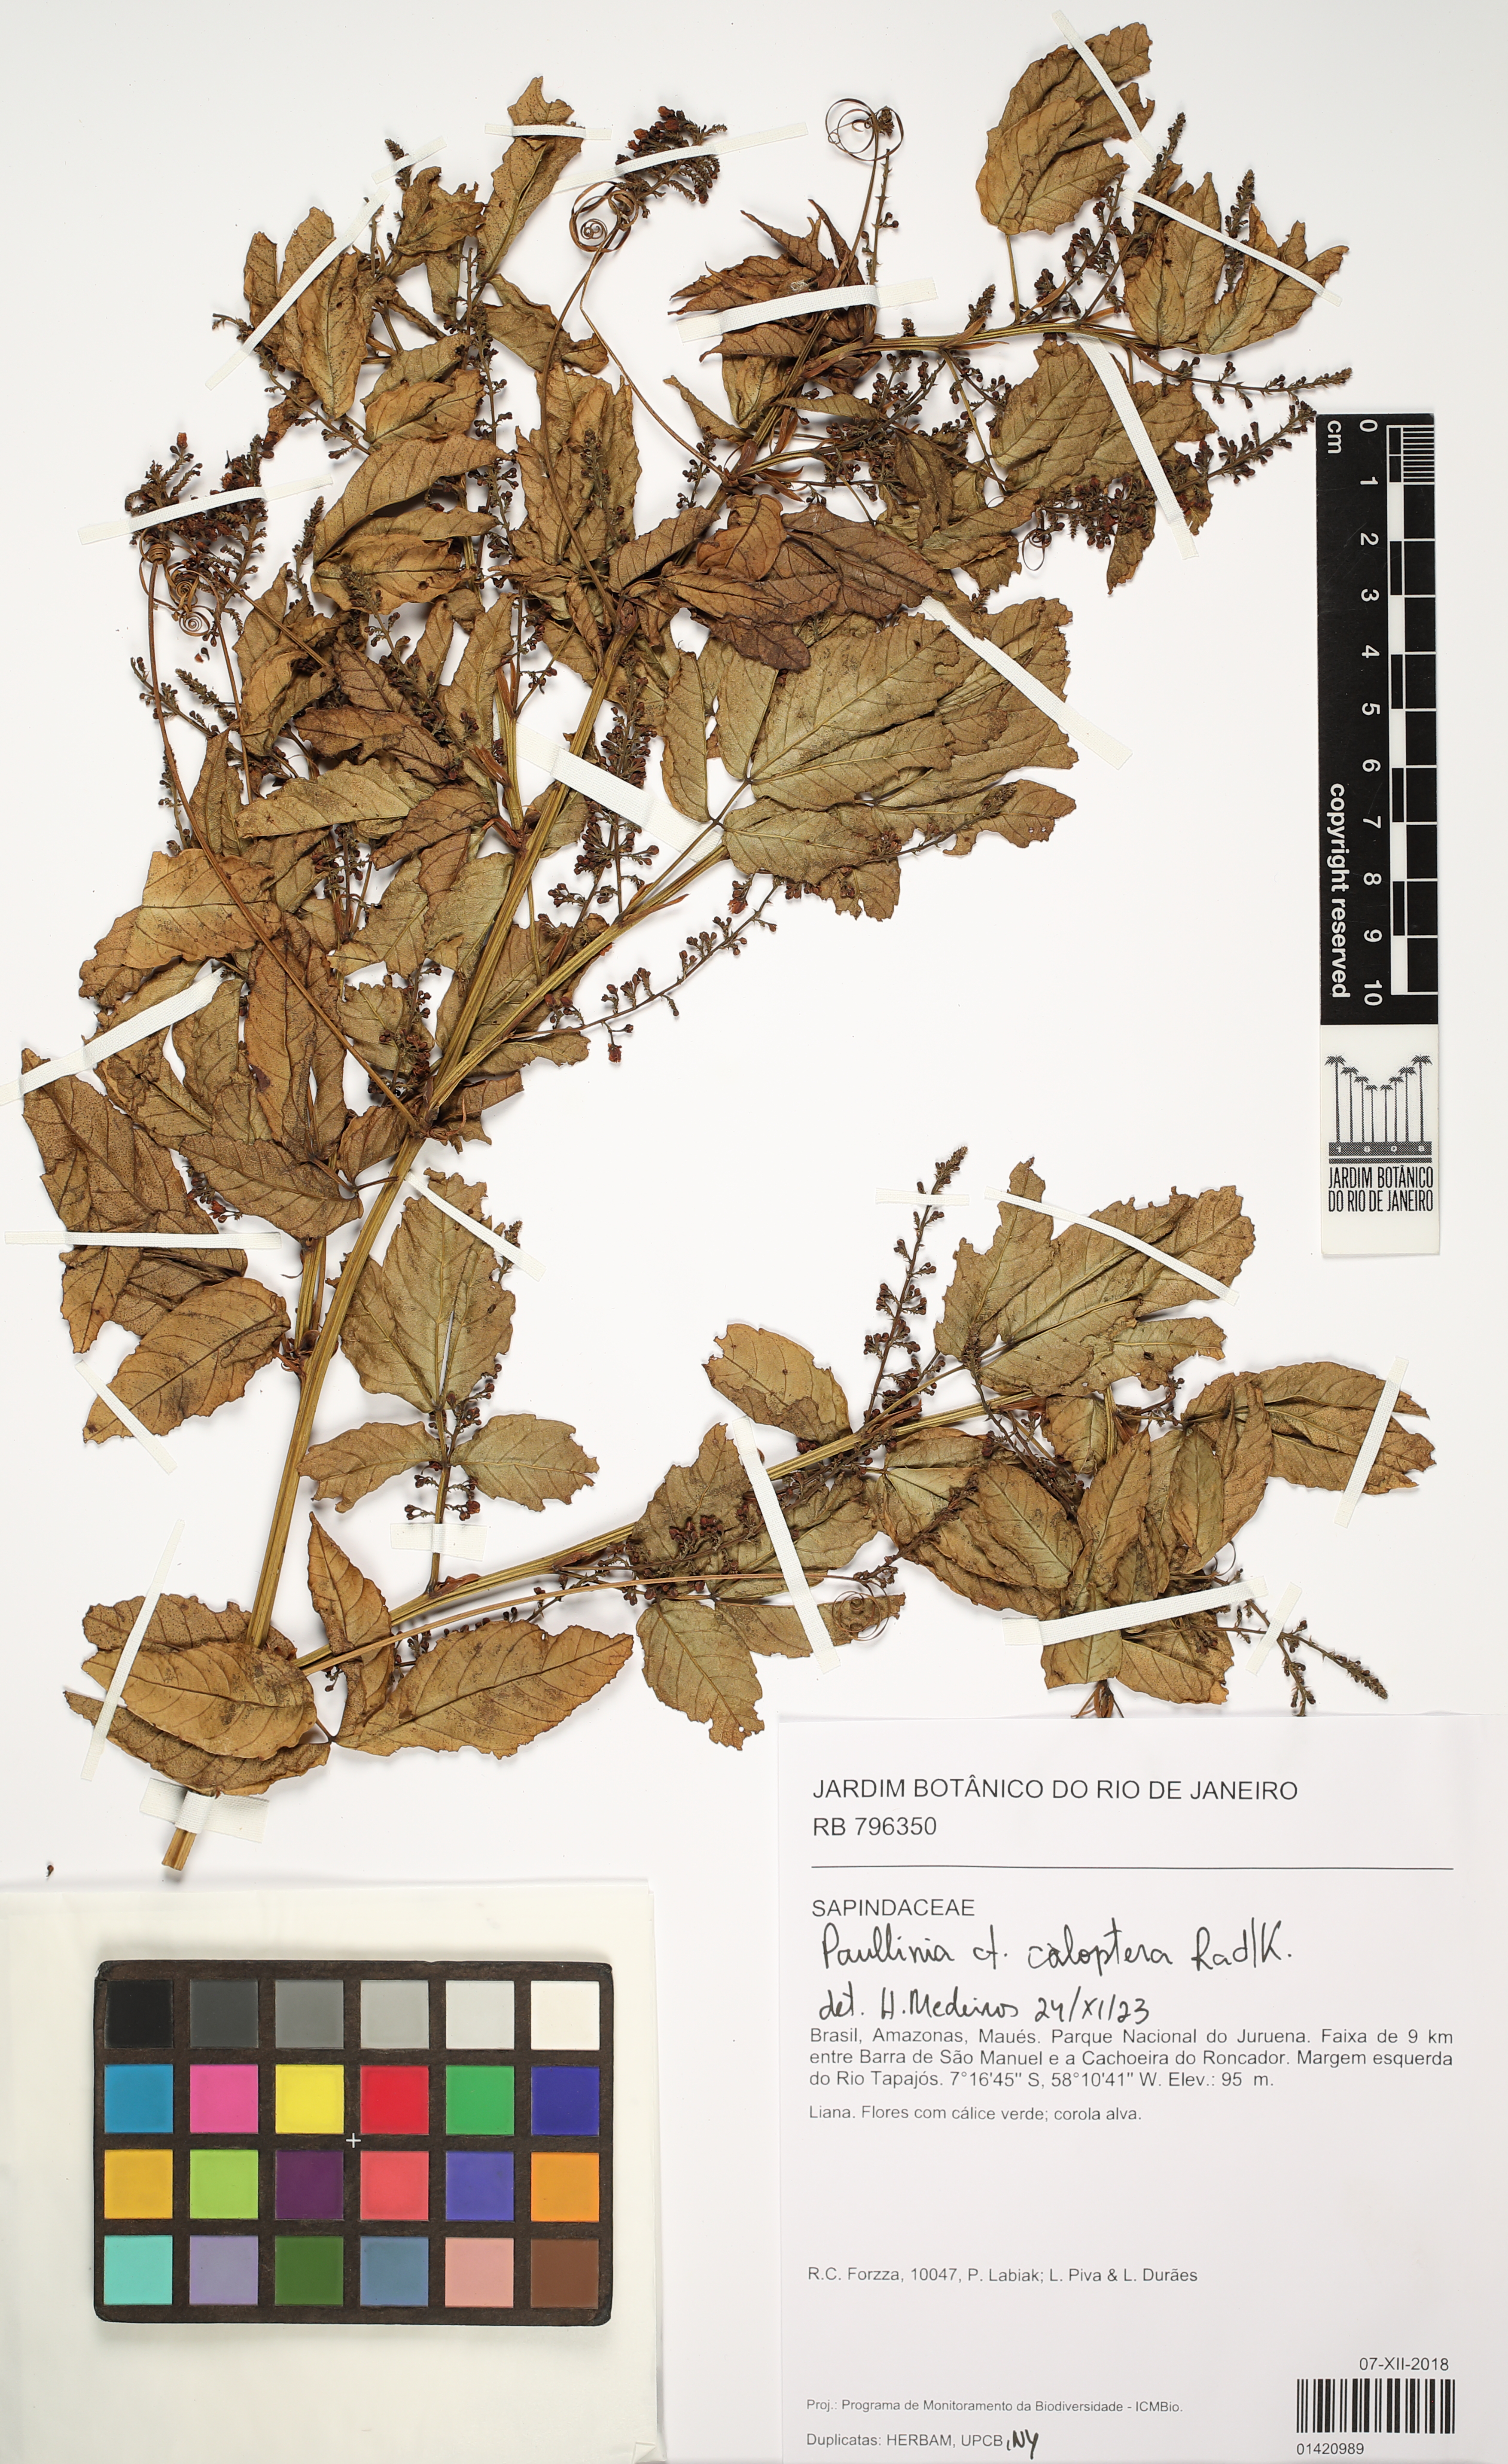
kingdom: Plantae
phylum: Tracheophyta
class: Magnoliopsida
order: Sapindales
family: Sapindaceae
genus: Paullinia
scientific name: Paullinia caloptera
